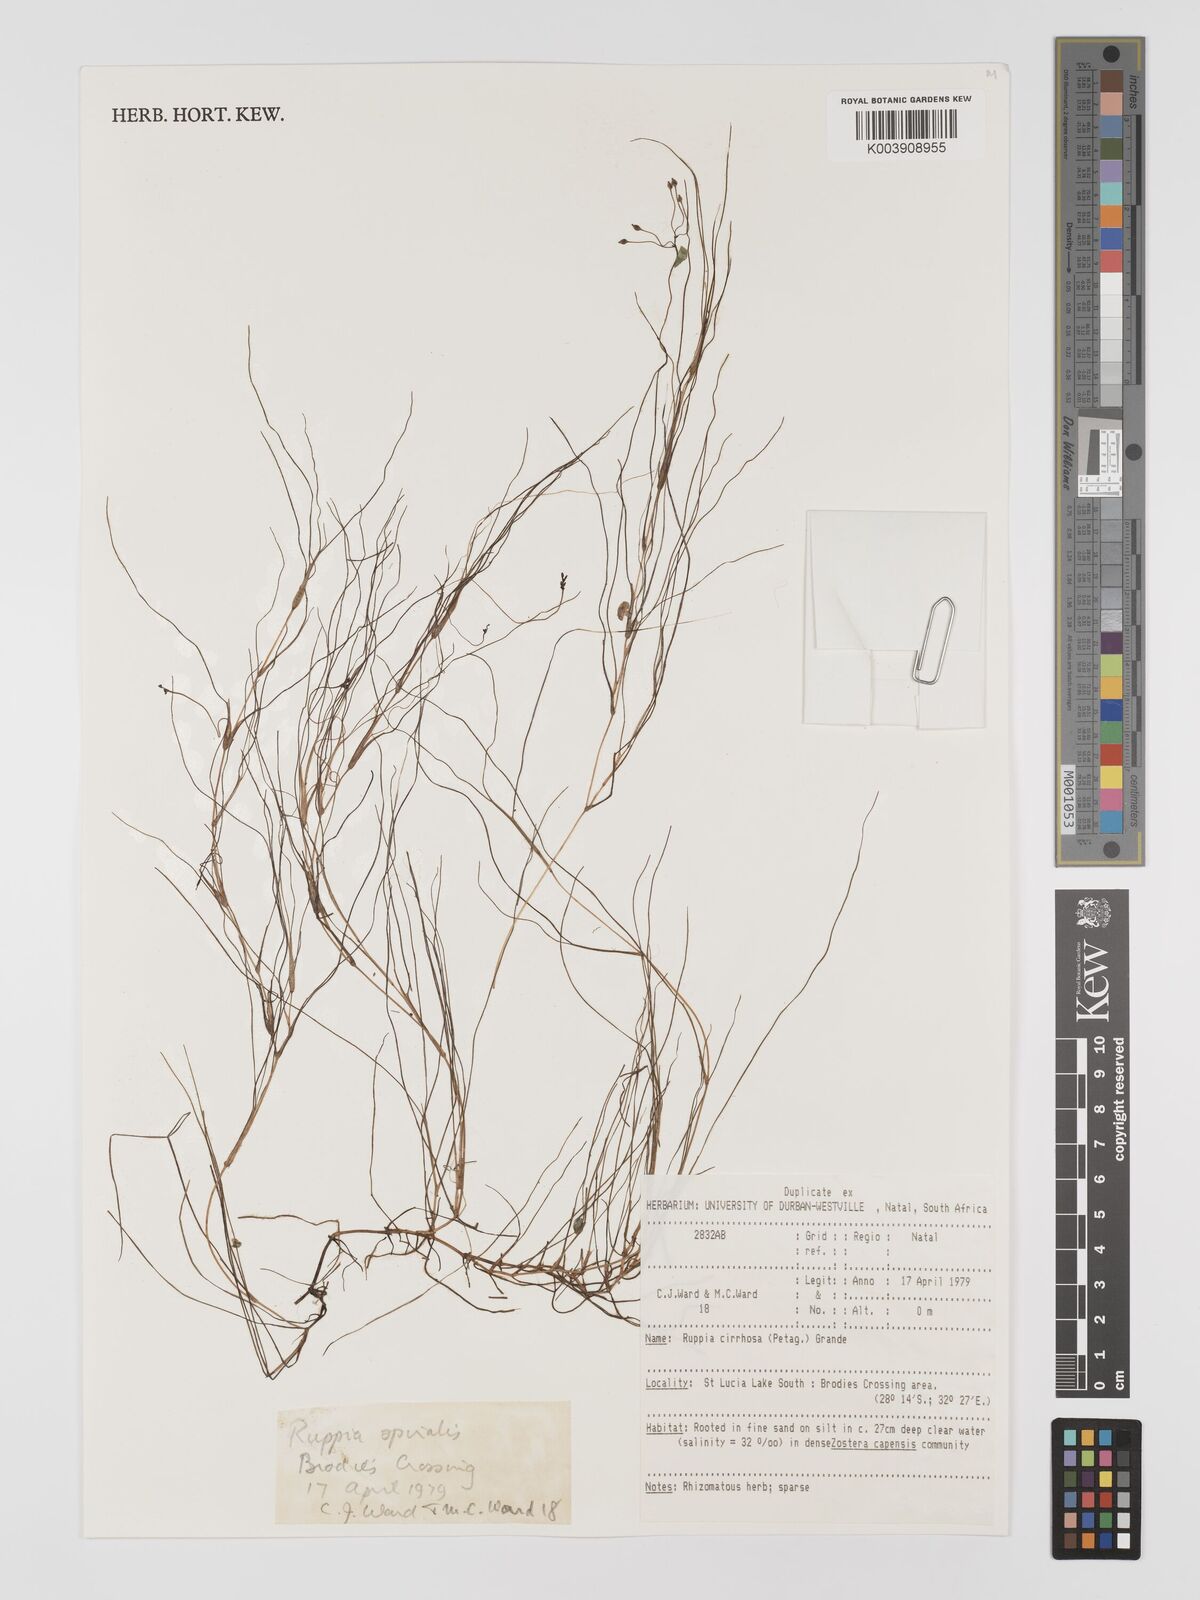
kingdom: Plantae
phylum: Tracheophyta
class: Liliopsida
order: Alismatales
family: Ruppiaceae
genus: Ruppia
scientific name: Ruppia cirrhosa
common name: Spiral tasselweed
